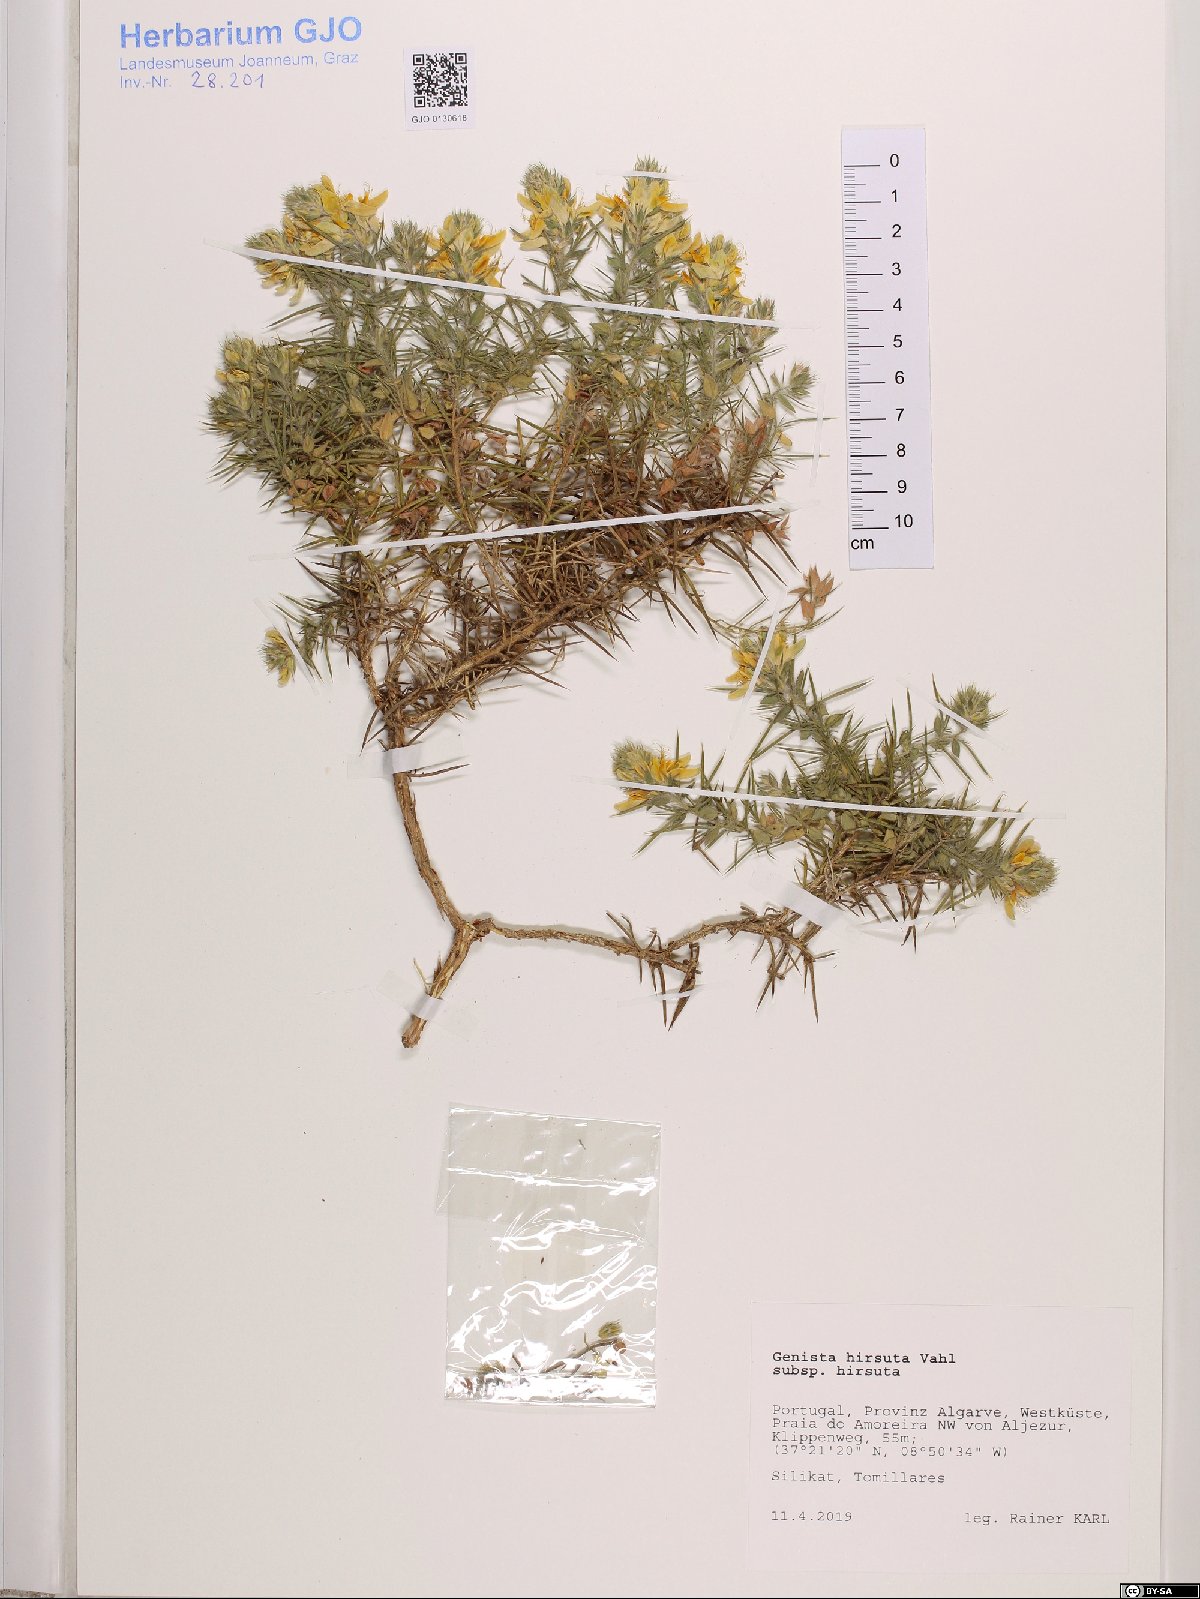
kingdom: Plantae
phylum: Tracheophyta
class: Magnoliopsida
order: Fabales
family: Fabaceae
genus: Genista
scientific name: Genista hirsuta
